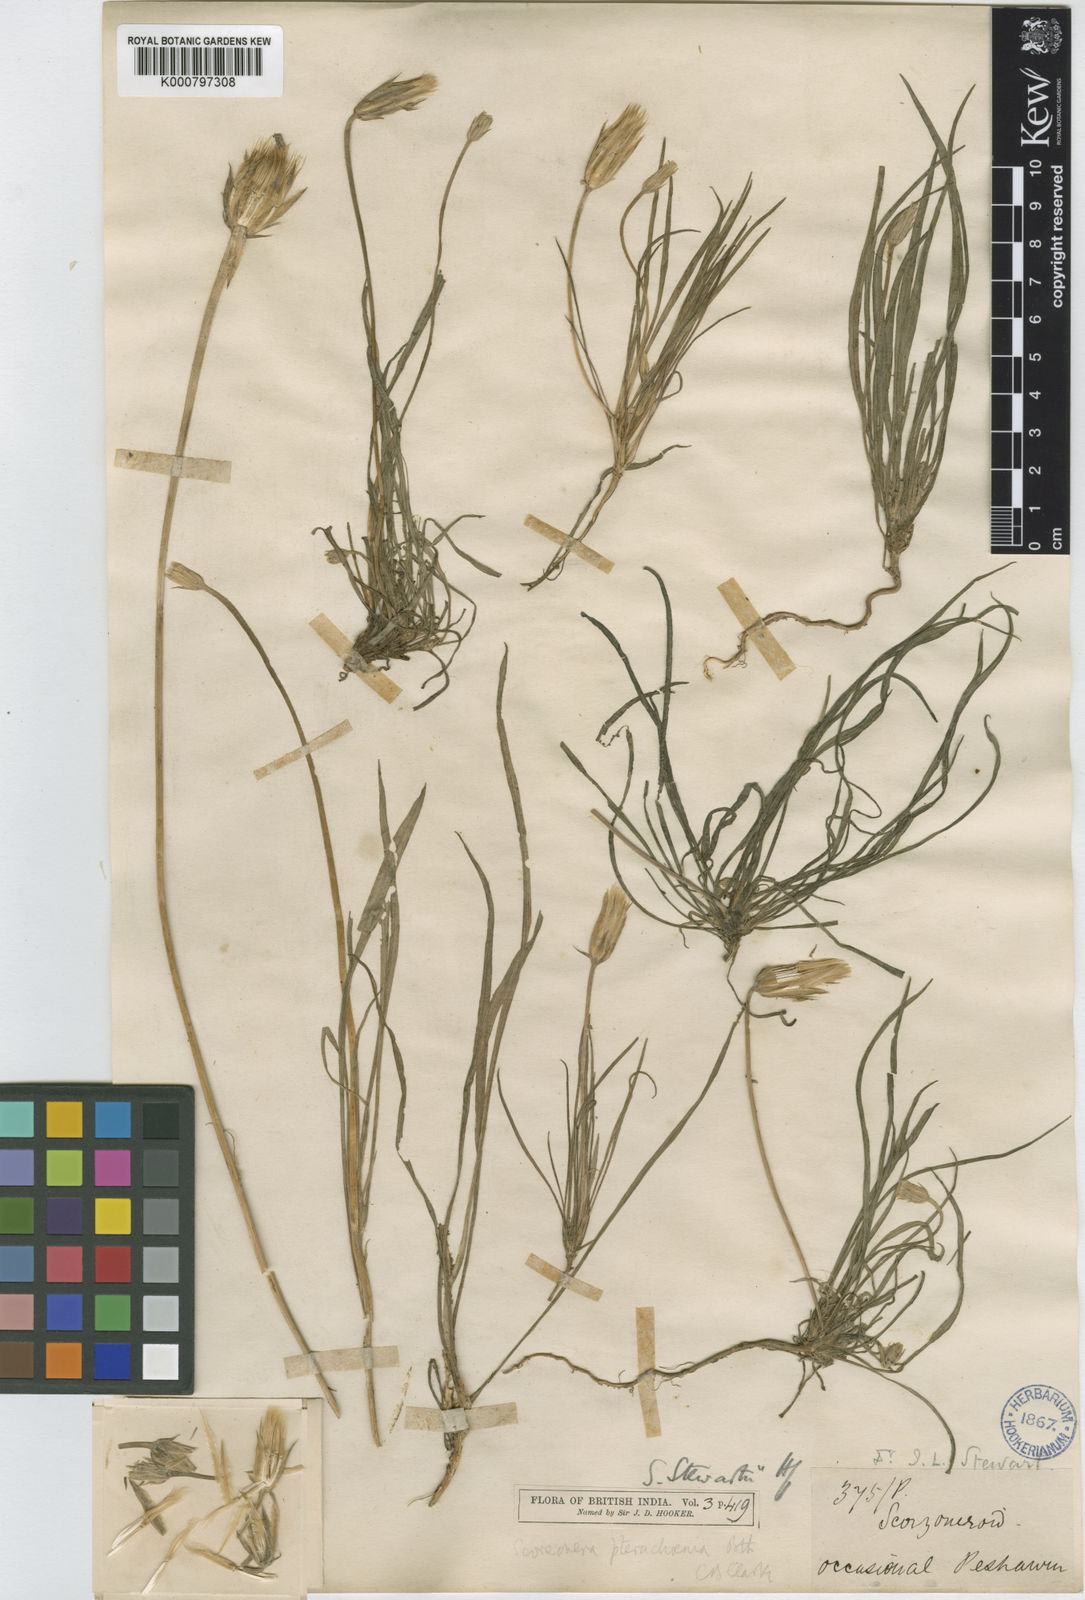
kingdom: Plantae
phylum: Tracheophyta
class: Magnoliopsida
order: Asterales
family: Asteraceae
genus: Pterachaenia
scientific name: Pterachaenia stewartii
